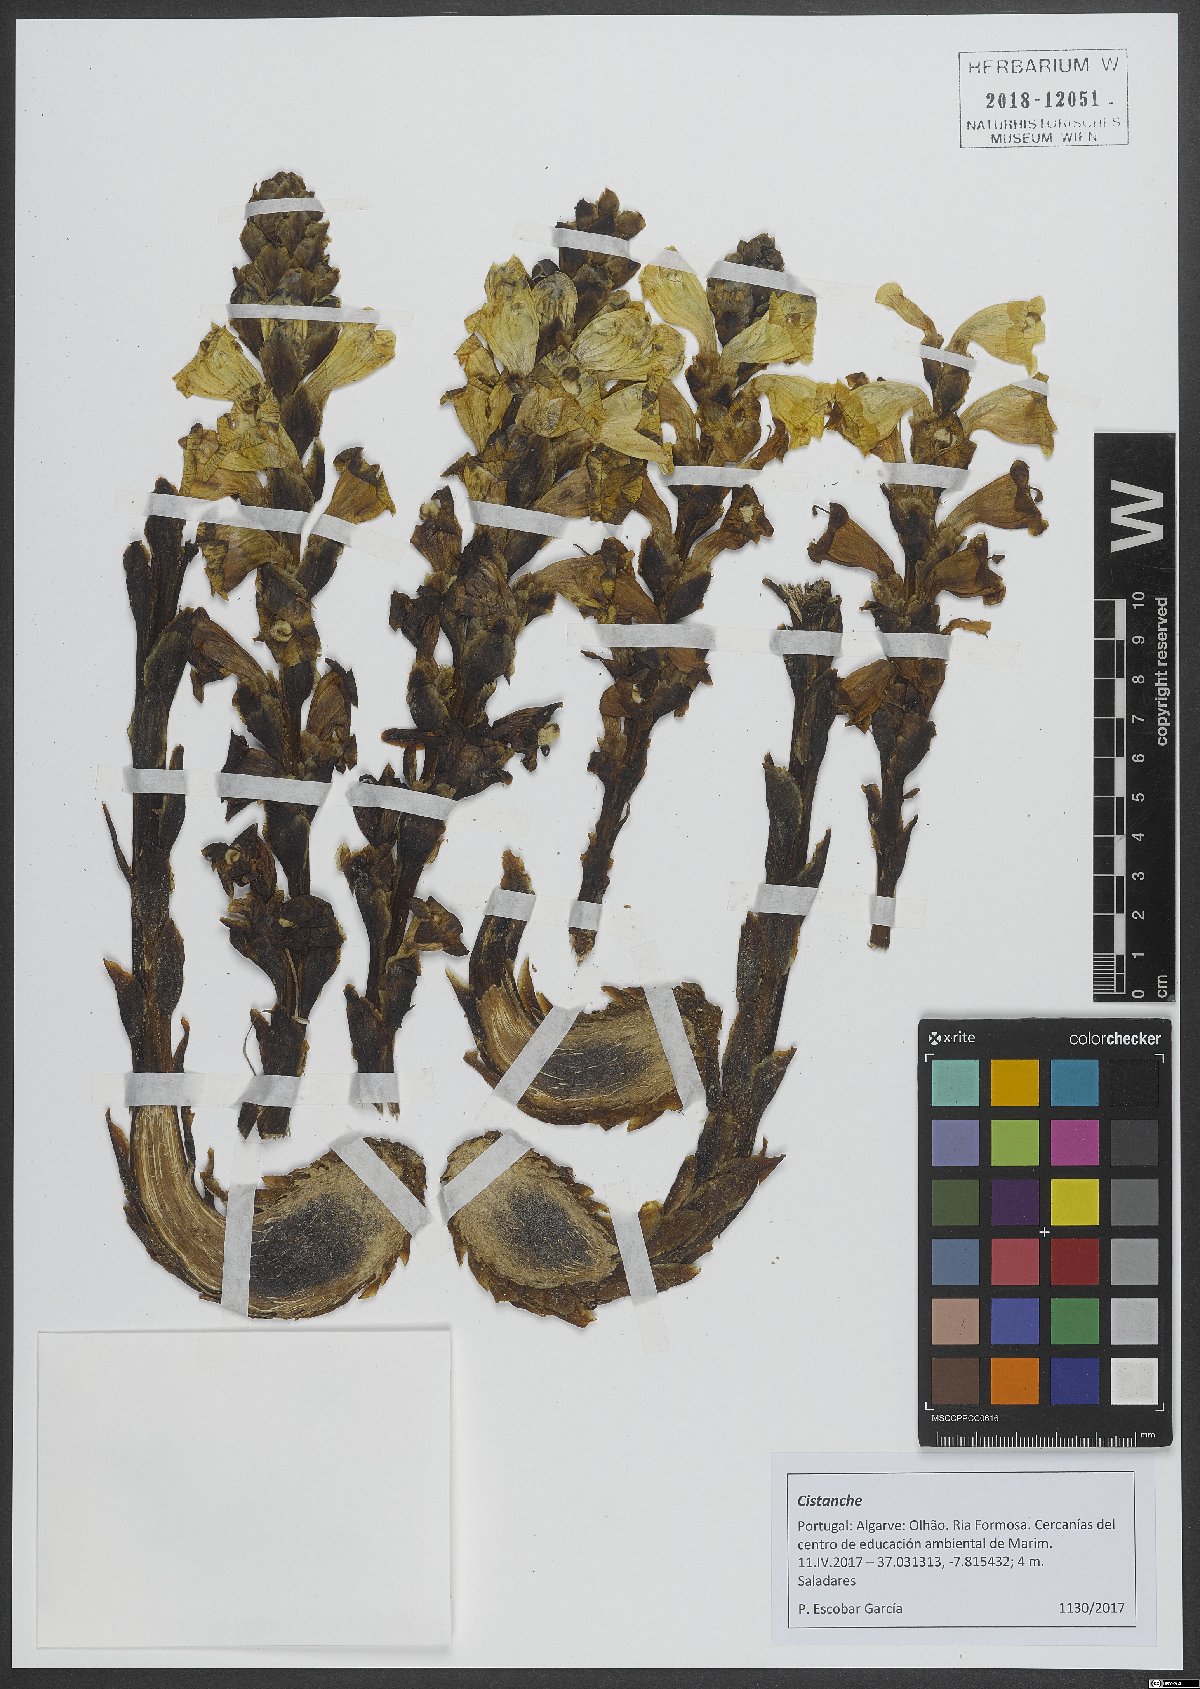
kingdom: Plantae
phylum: Tracheophyta
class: Magnoliopsida
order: Lamiales
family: Orobanchaceae
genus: Cistanche
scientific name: Cistanche
